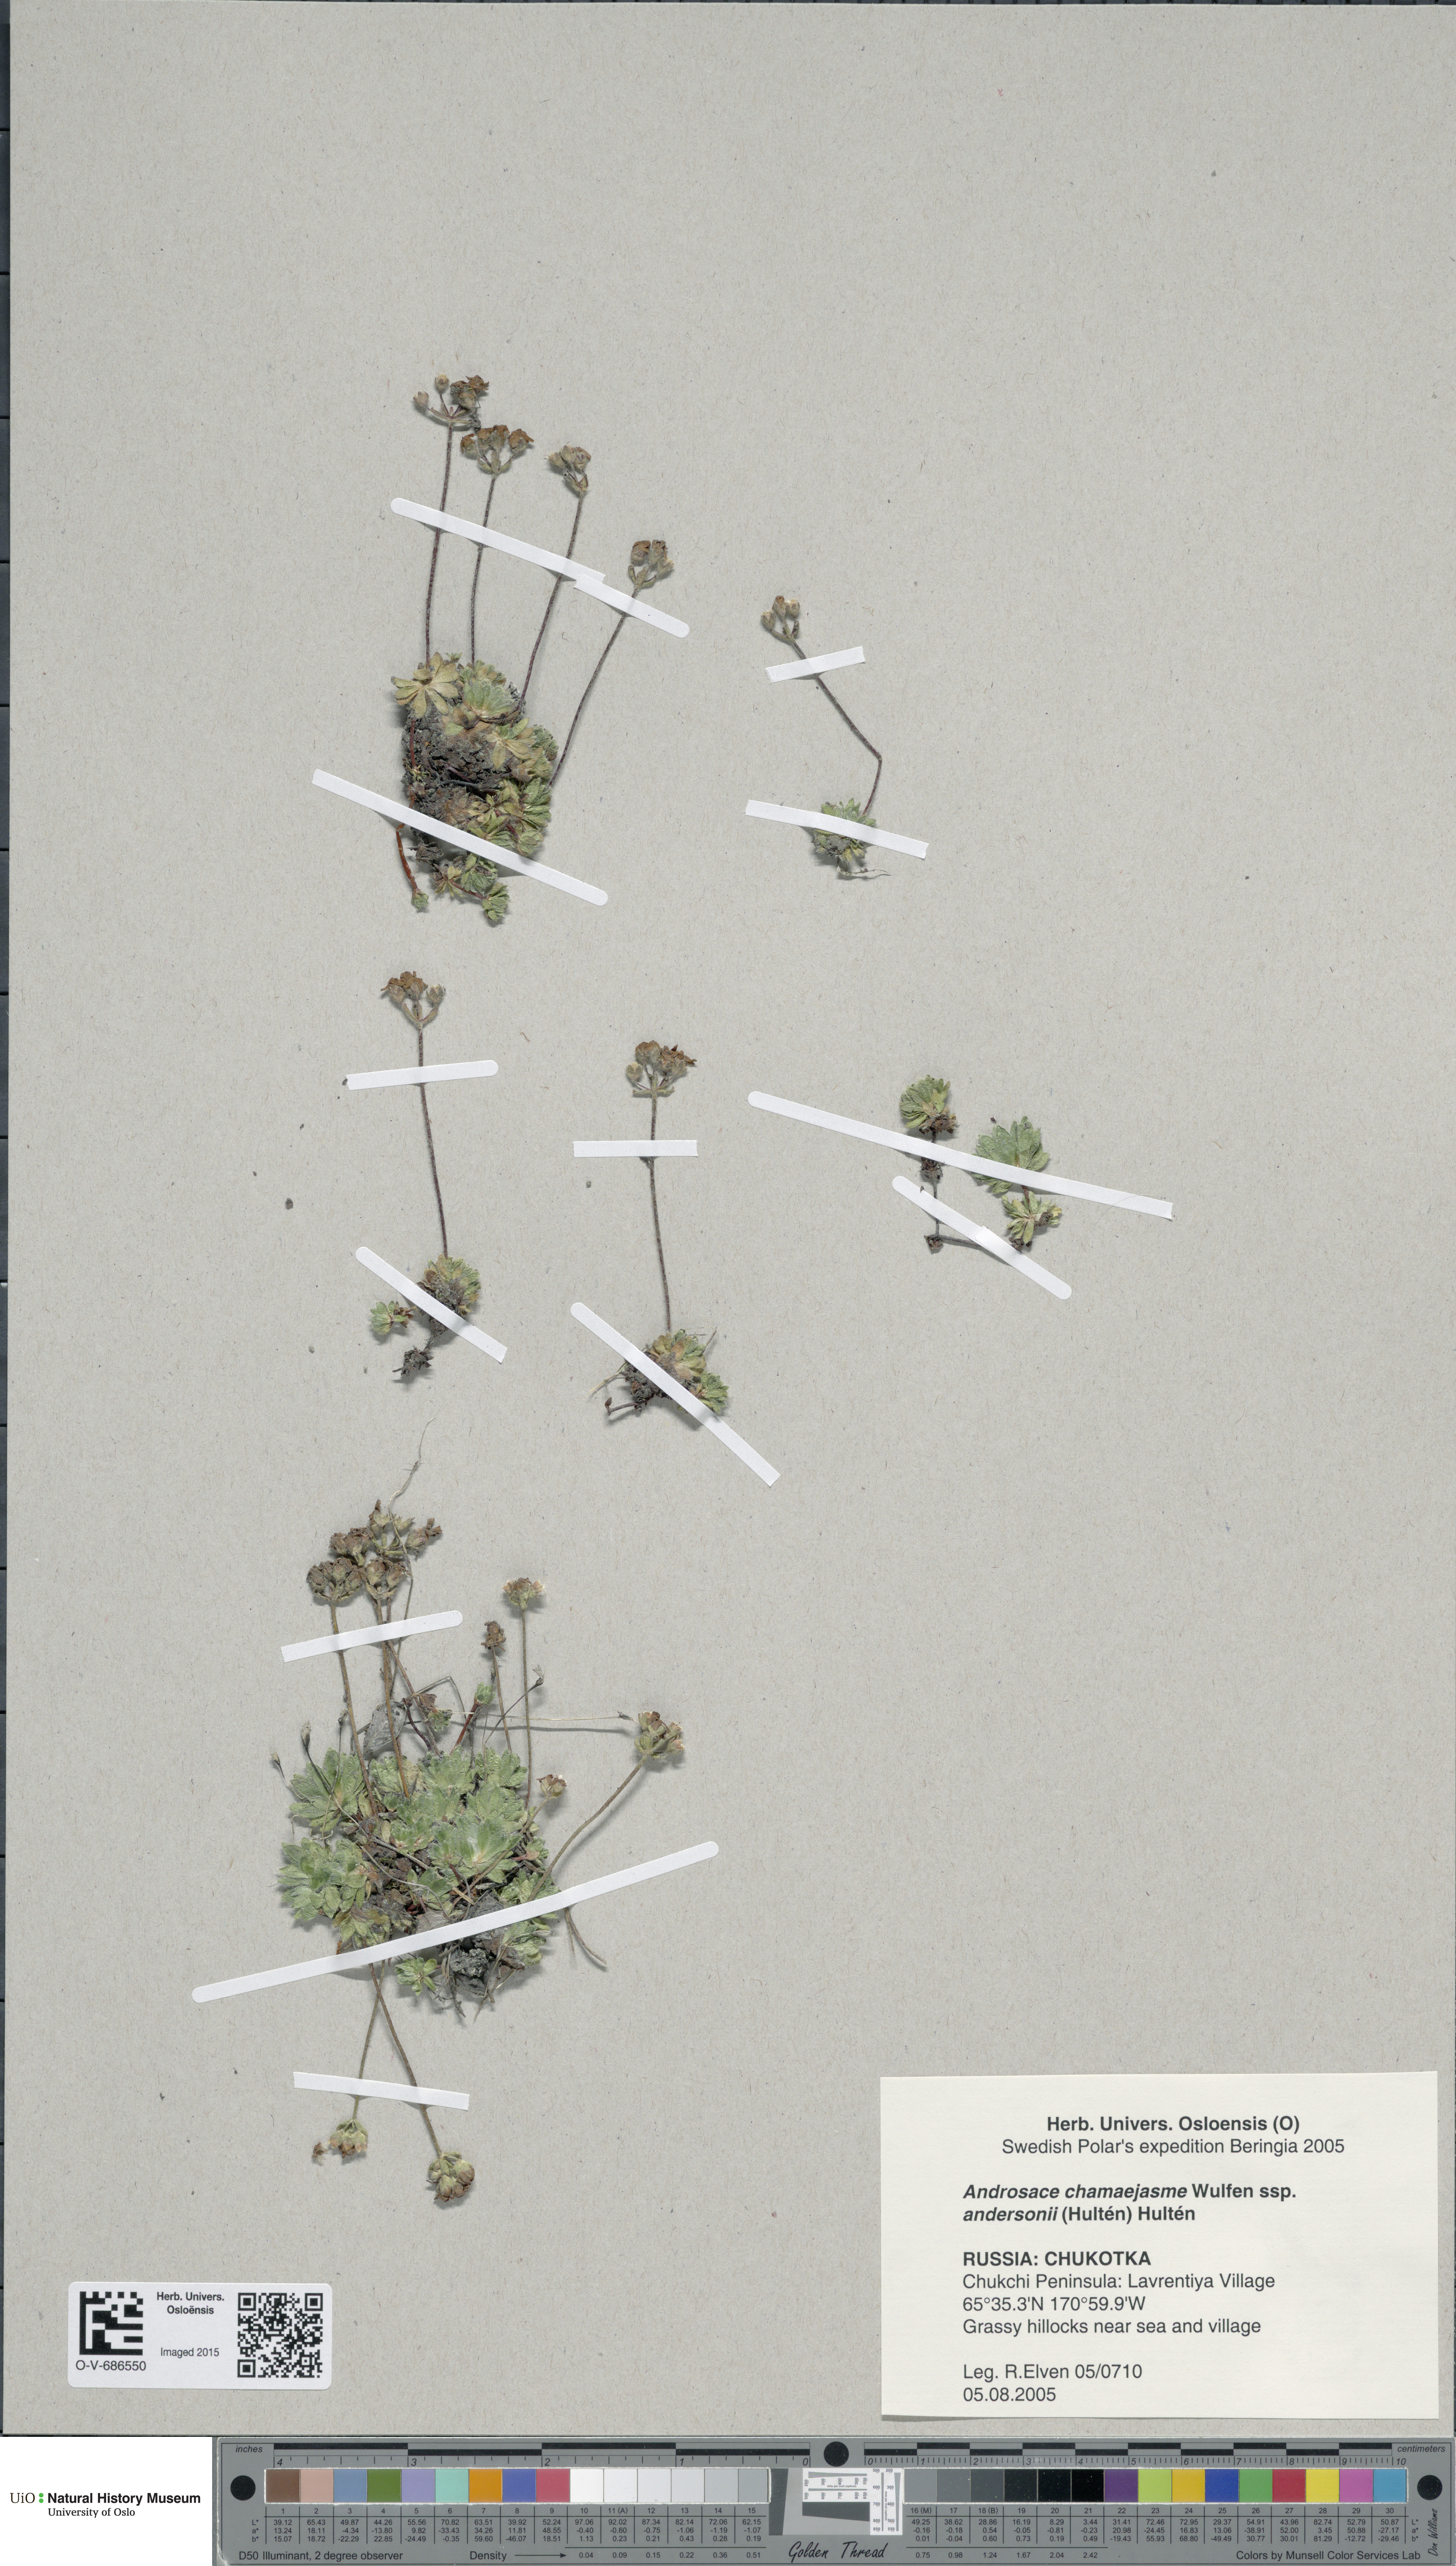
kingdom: Plantae
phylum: Tracheophyta
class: Magnoliopsida
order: Ericales
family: Primulaceae
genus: Androsace
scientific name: Androsace chamaejasme
